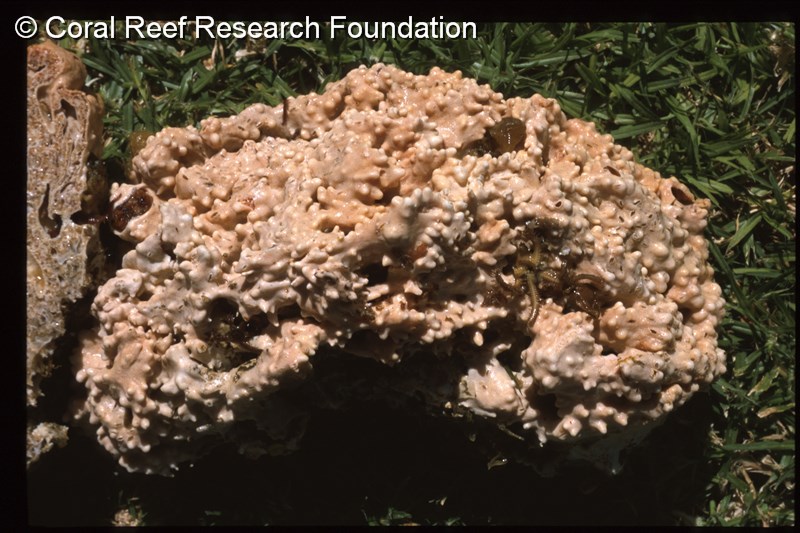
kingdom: Animalia
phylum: Chordata
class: Ascidiacea
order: Aplousobranchia
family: Didemnidae
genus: Trididemnum
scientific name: Trididemnum
